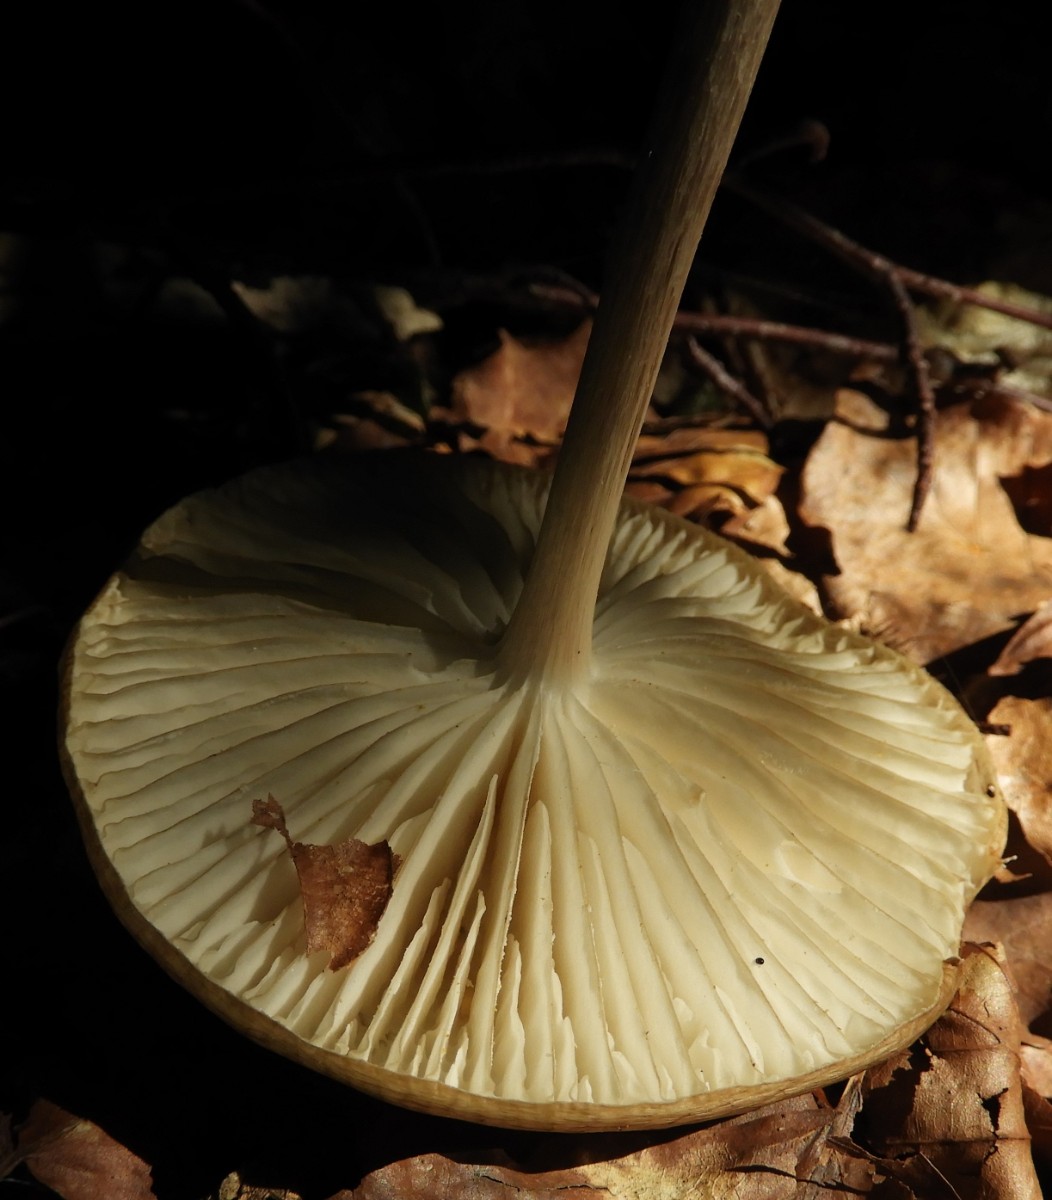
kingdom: Fungi
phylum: Basidiomycota
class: Agaricomycetes
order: Agaricales
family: Physalacriaceae
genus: Hymenopellis
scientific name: Hymenopellis radicata
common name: almindelig pælerodshat
